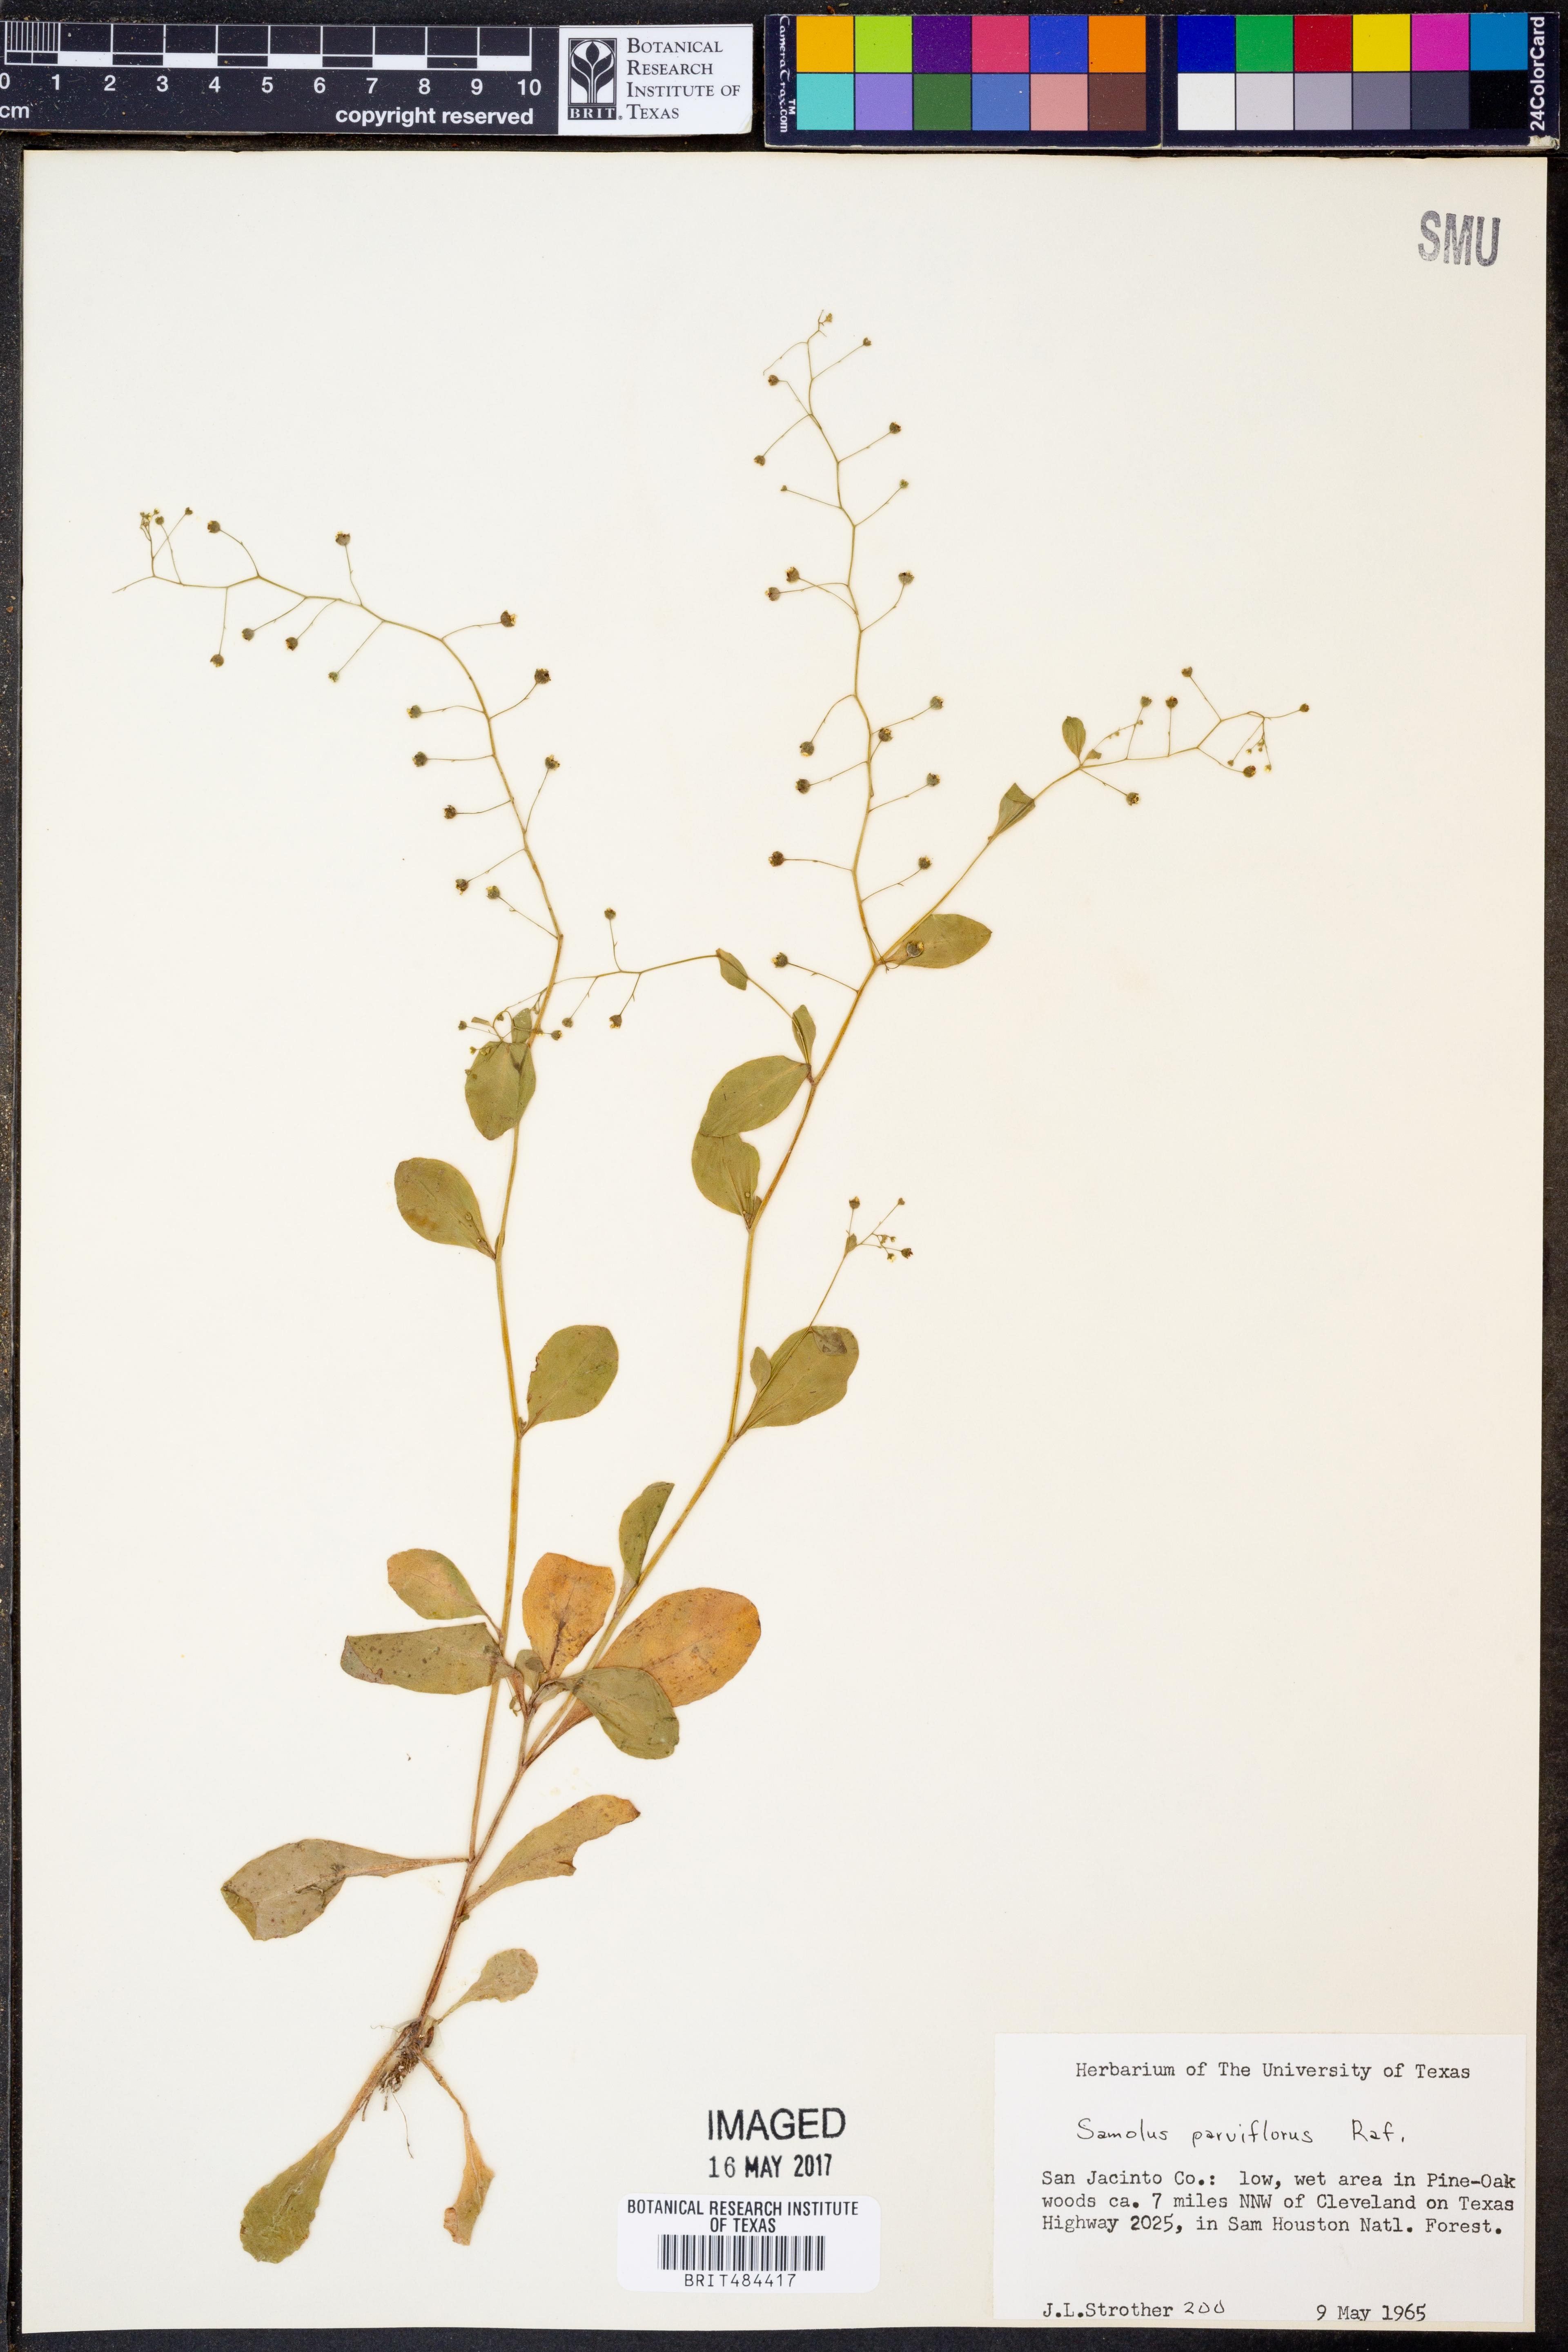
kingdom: Plantae
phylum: Tracheophyta
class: Magnoliopsida
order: Ericales
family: Primulaceae
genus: Samolus
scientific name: Samolus parviflorus
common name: False water pimpernel
